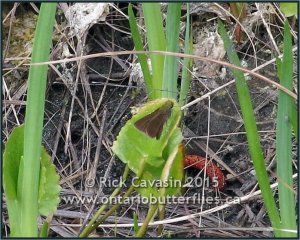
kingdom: Animalia
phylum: Arthropoda
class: Insecta
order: Lepidoptera
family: Hesperiidae
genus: Euphyes
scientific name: Euphyes vestris
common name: Dun Skipper
